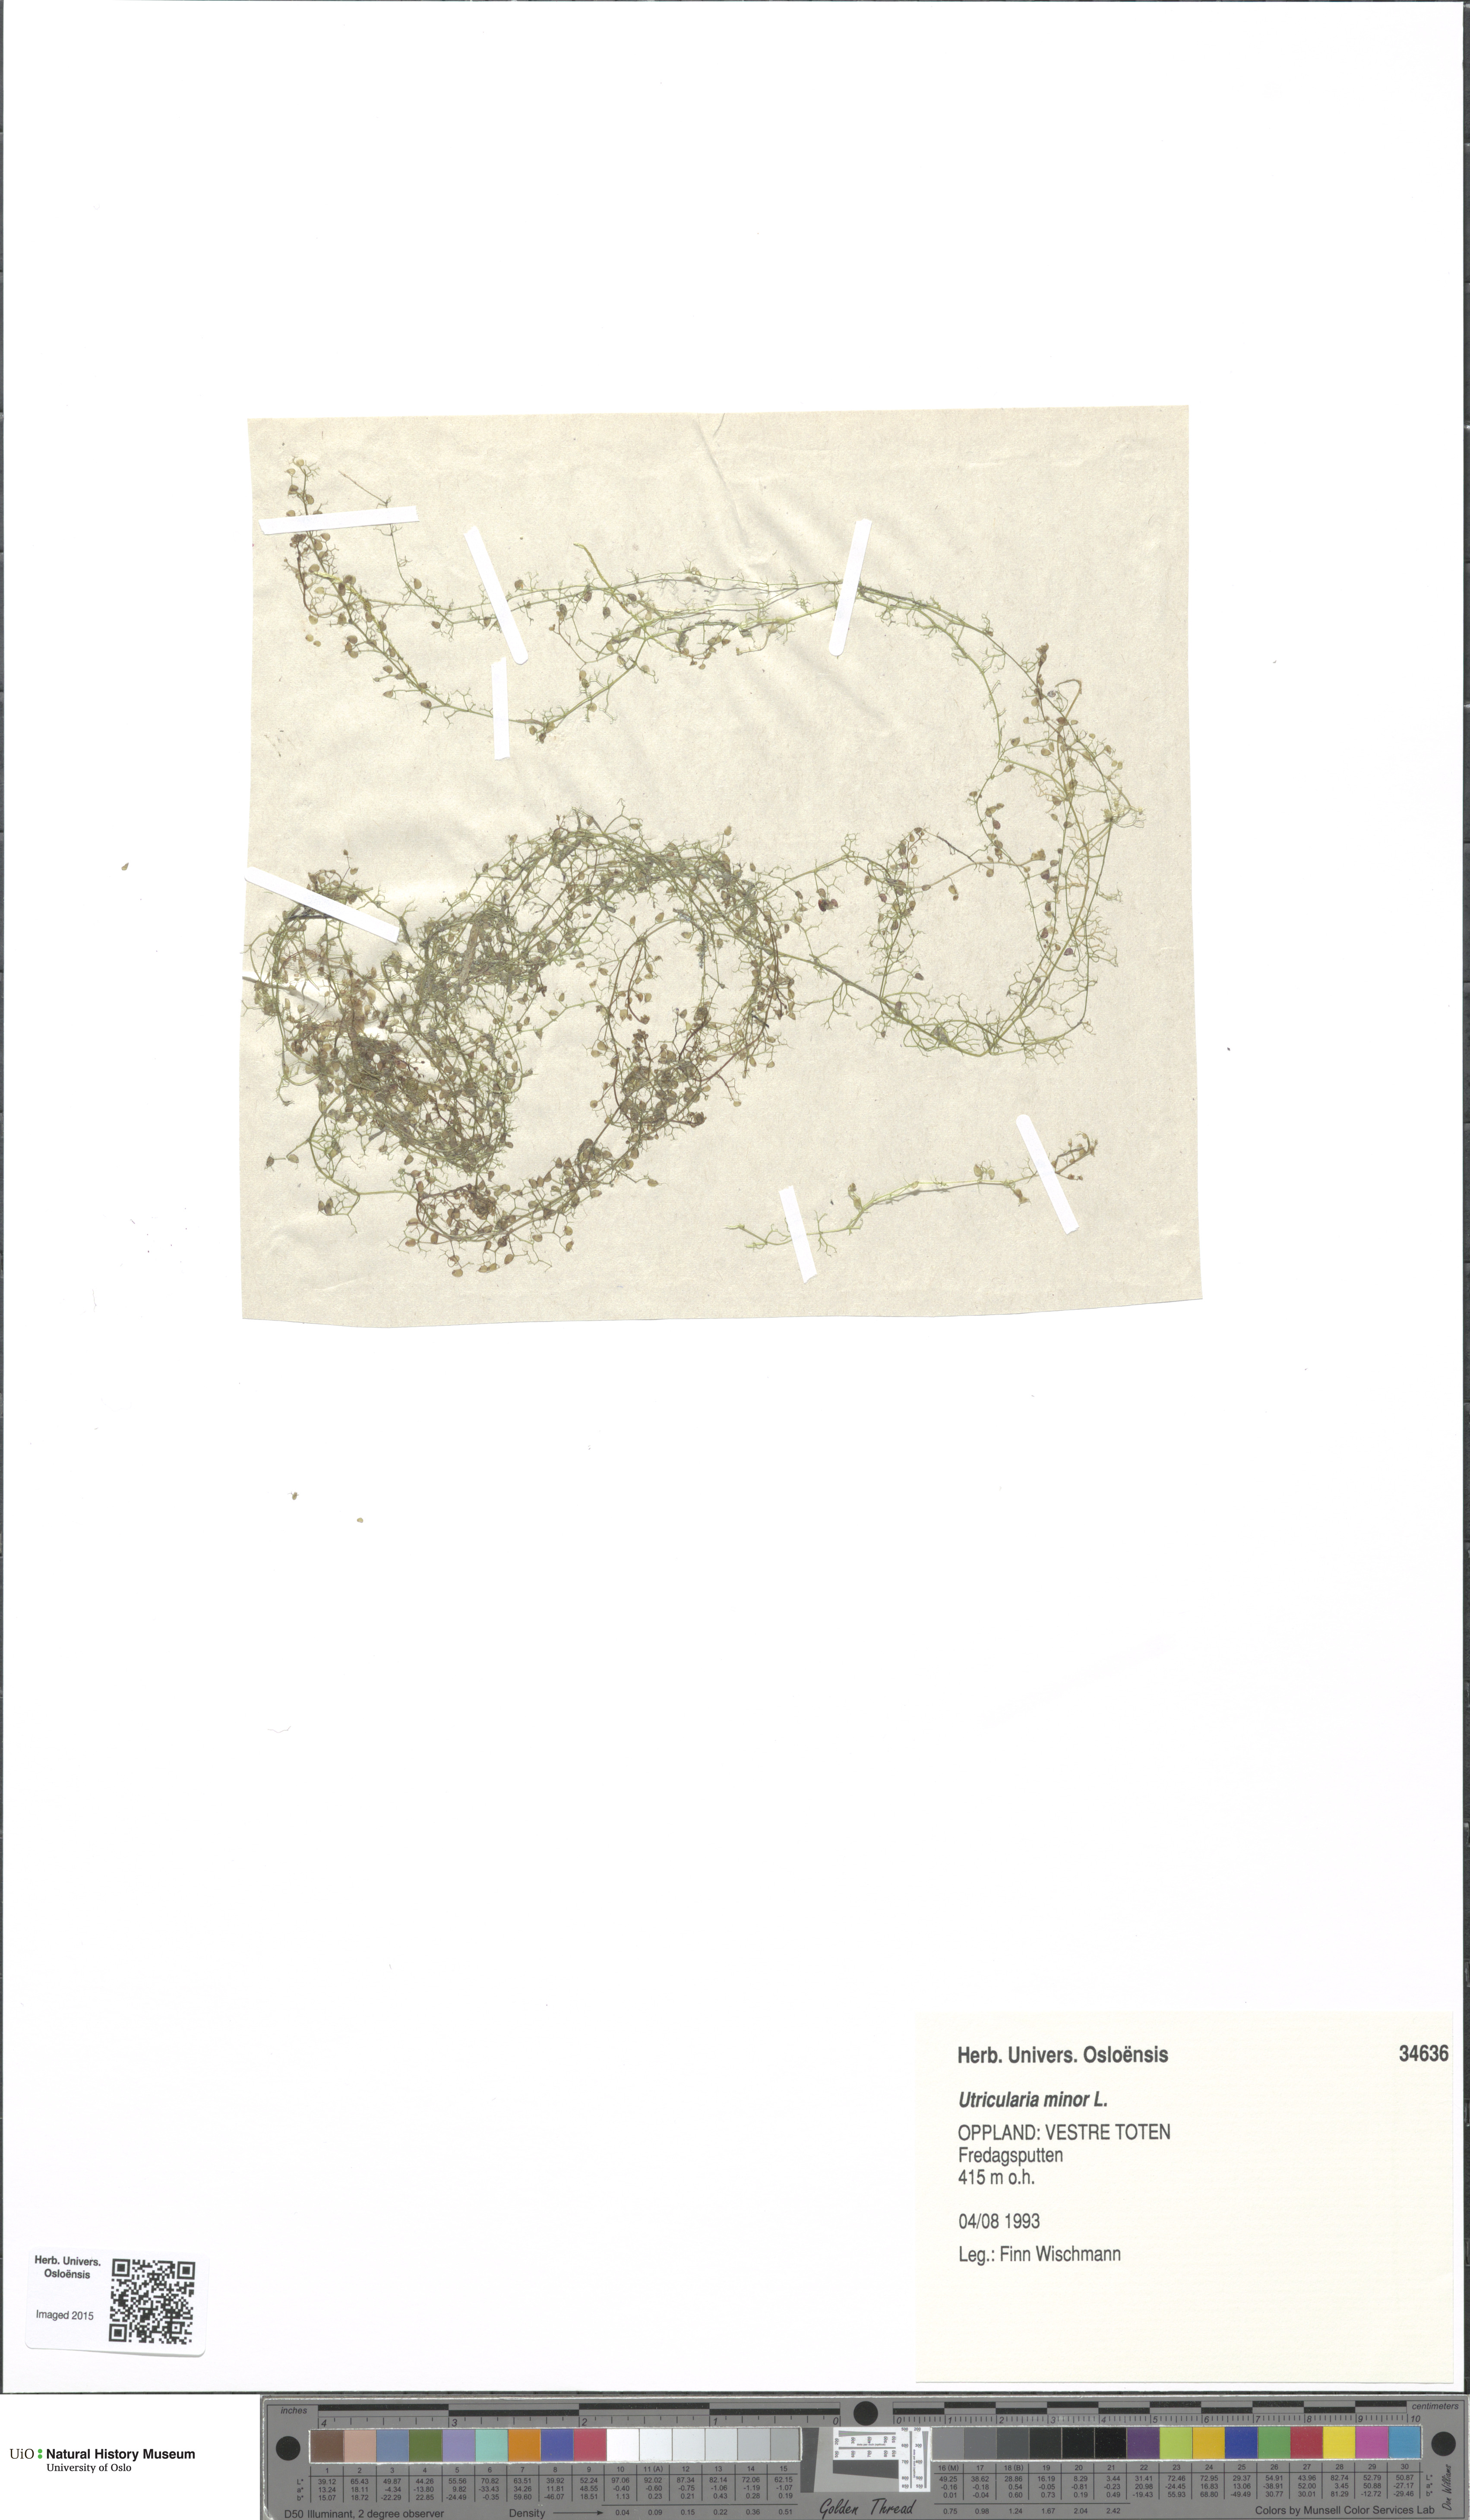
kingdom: Plantae
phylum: Tracheophyta
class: Magnoliopsida
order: Lamiales
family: Lentibulariaceae
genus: Utricularia
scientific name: Utricularia minor
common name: Lesser bladderwort
